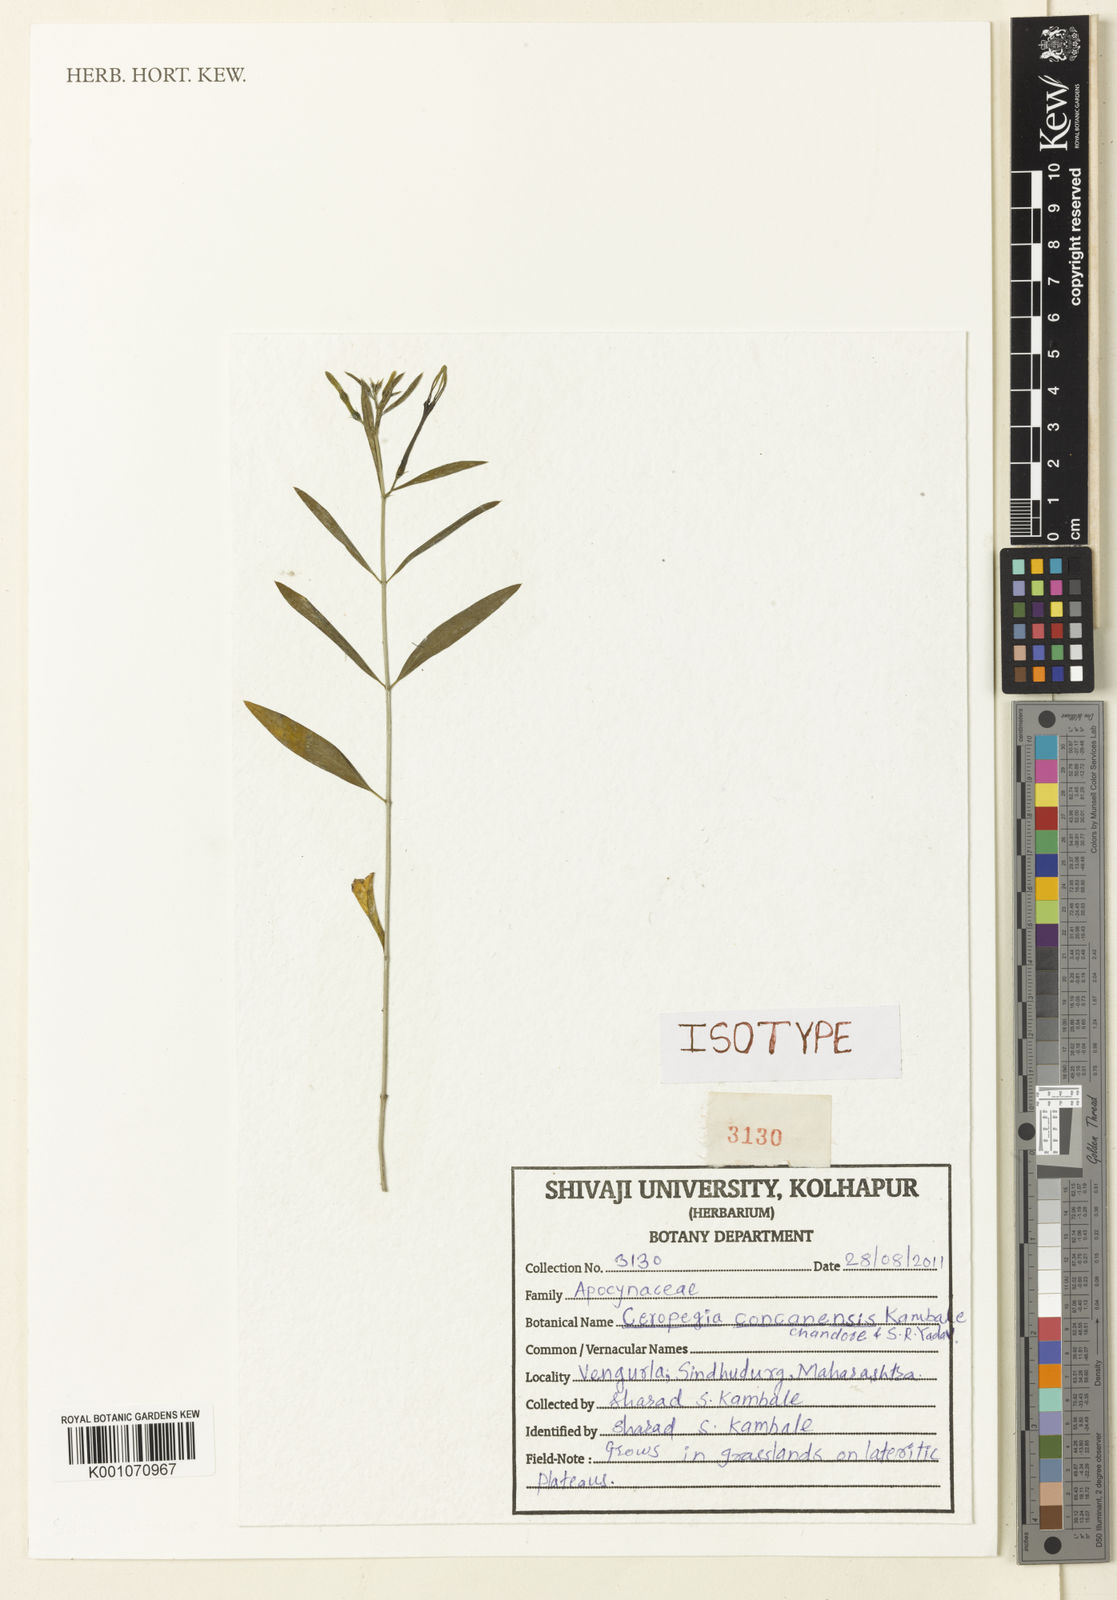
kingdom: Plantae
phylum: Tracheophyta
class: Magnoliopsida
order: Gentianales
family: Apocynaceae
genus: Ceropegia
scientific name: Ceropegia
